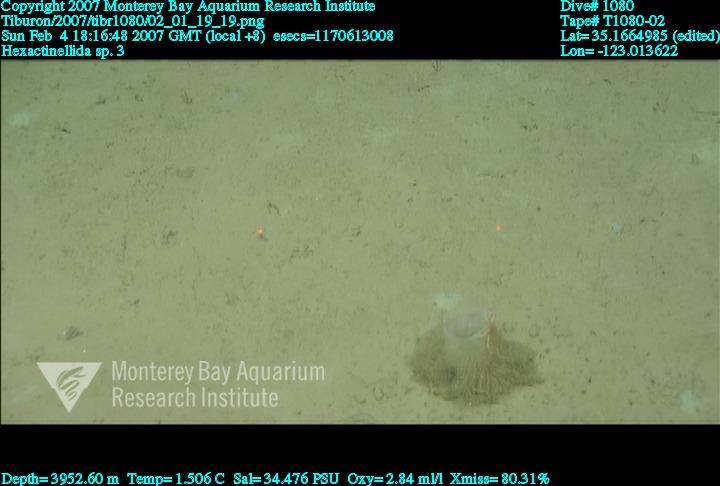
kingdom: Animalia
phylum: Porifera
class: Hexactinellida
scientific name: Hexactinellida
